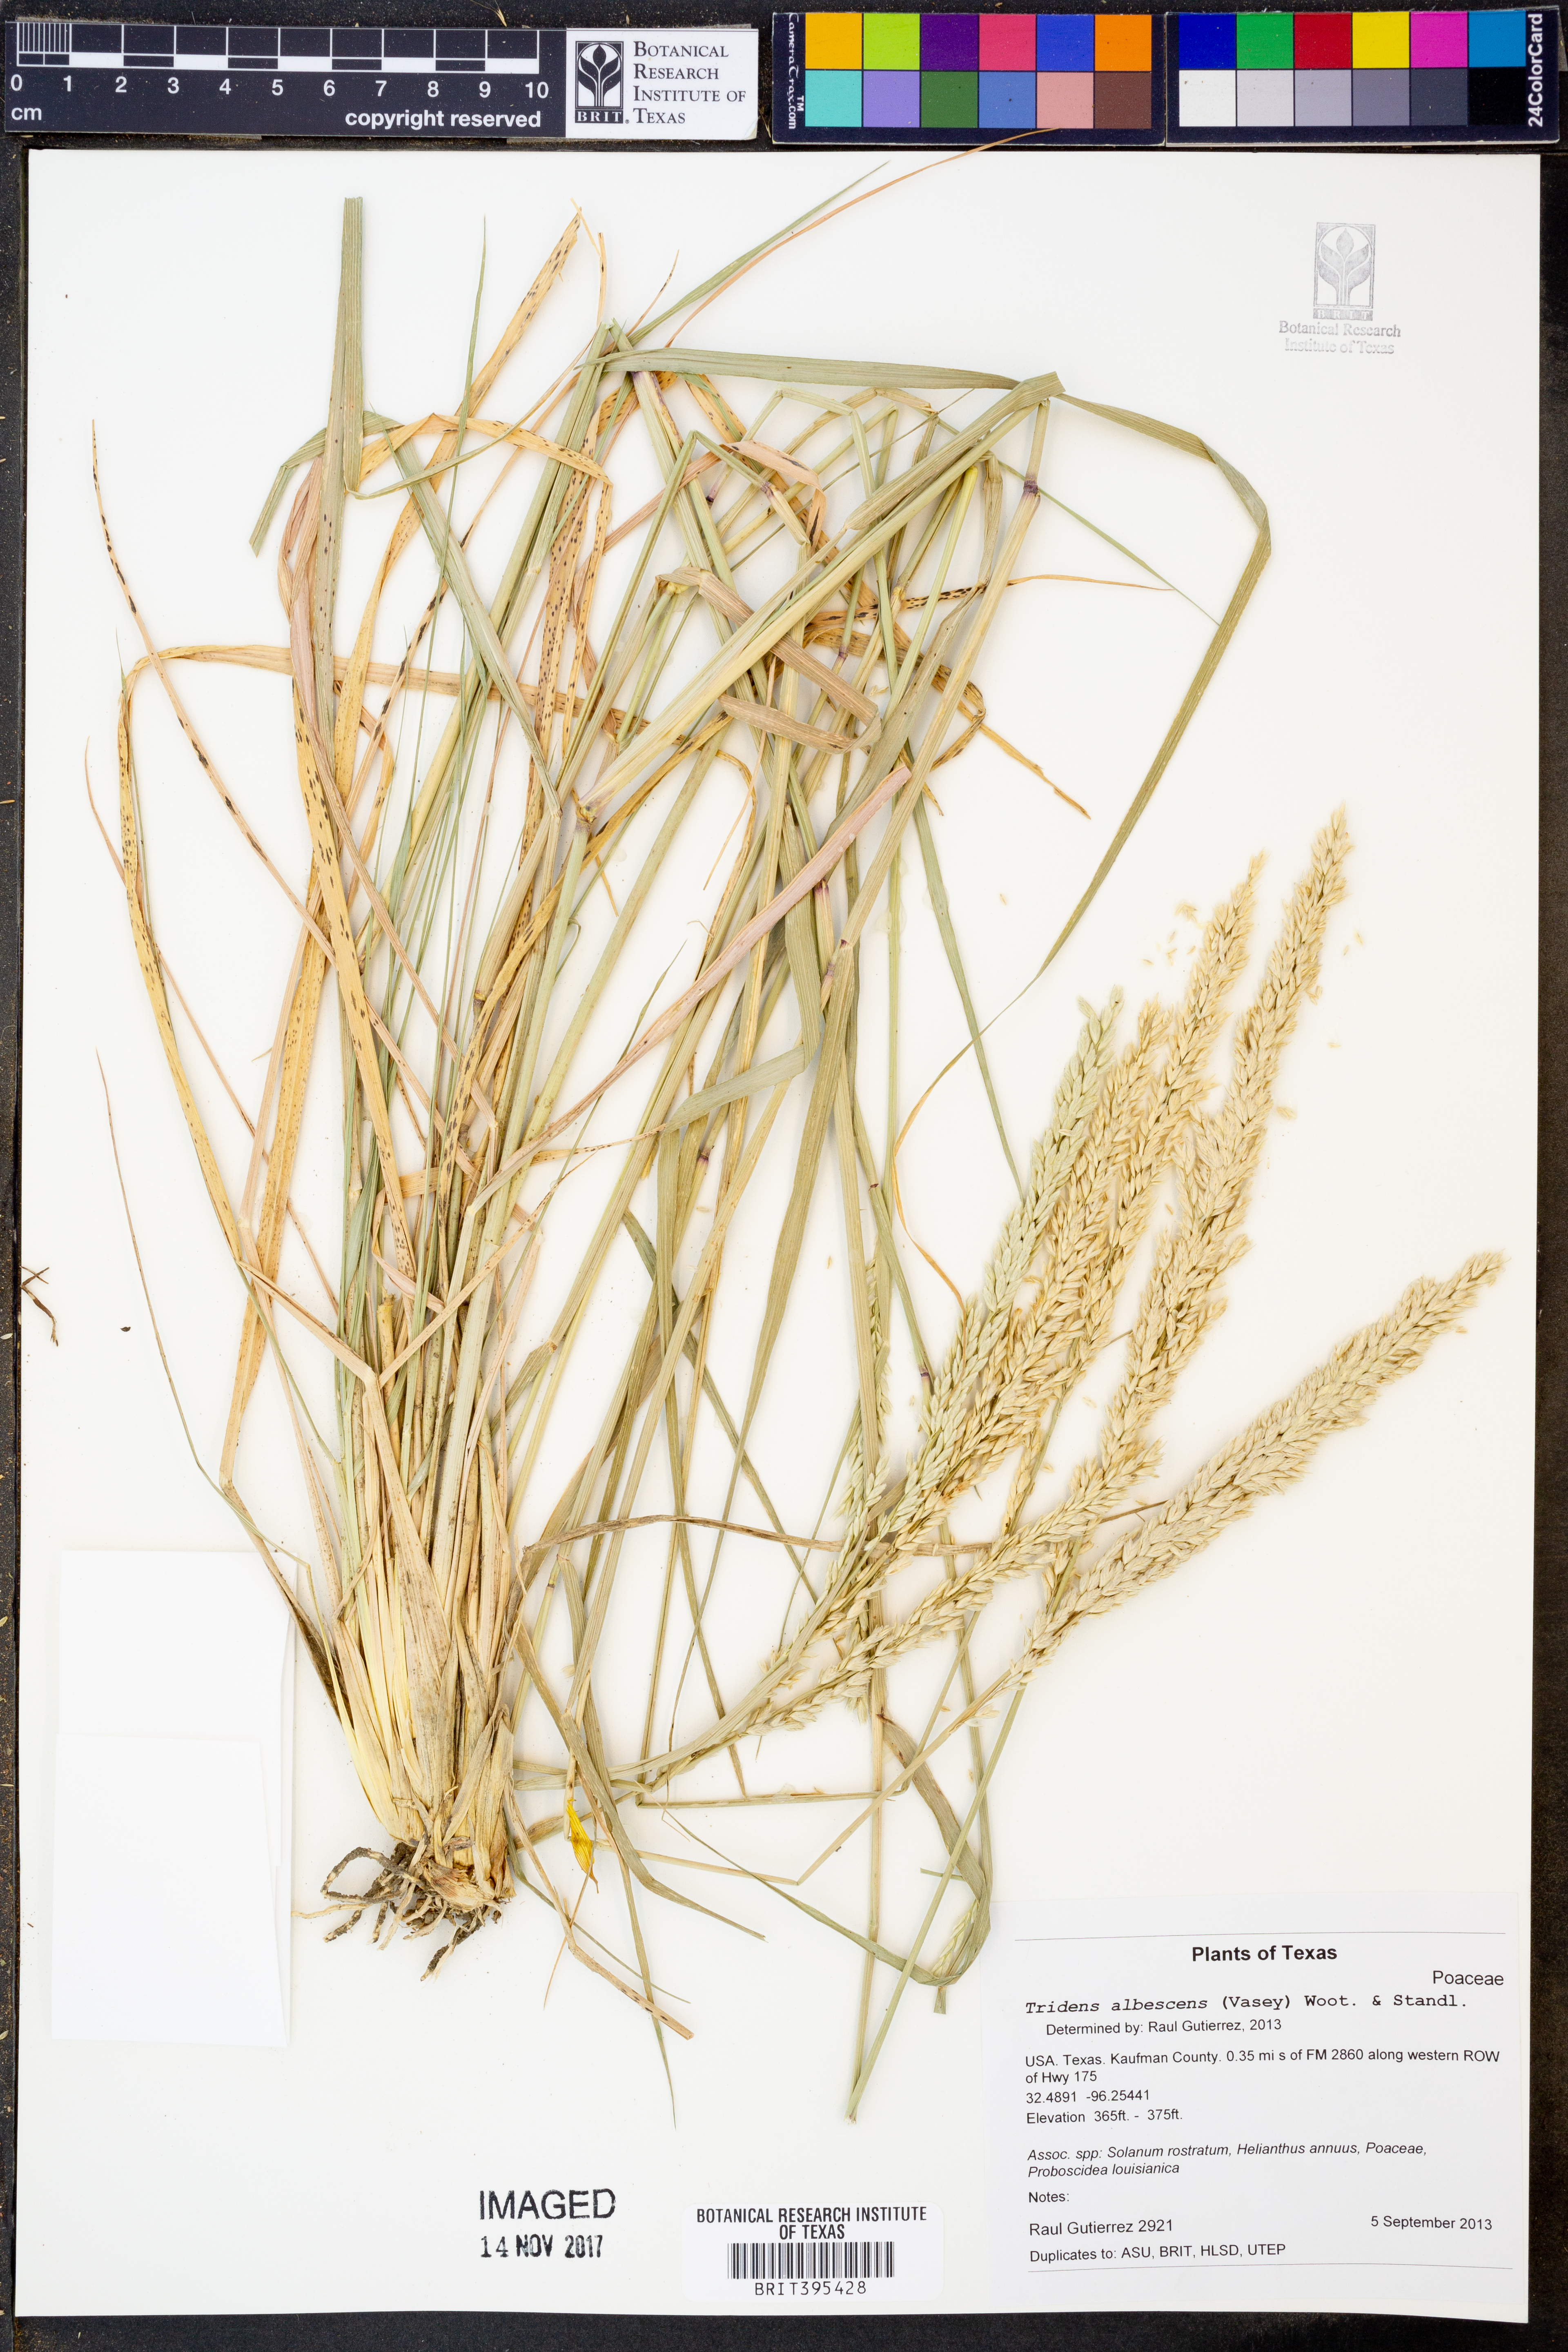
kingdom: Plantae
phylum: Tracheophyta
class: Liliopsida
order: Poales
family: Poaceae
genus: Tridens
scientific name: Tridens albescens
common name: White tridens
